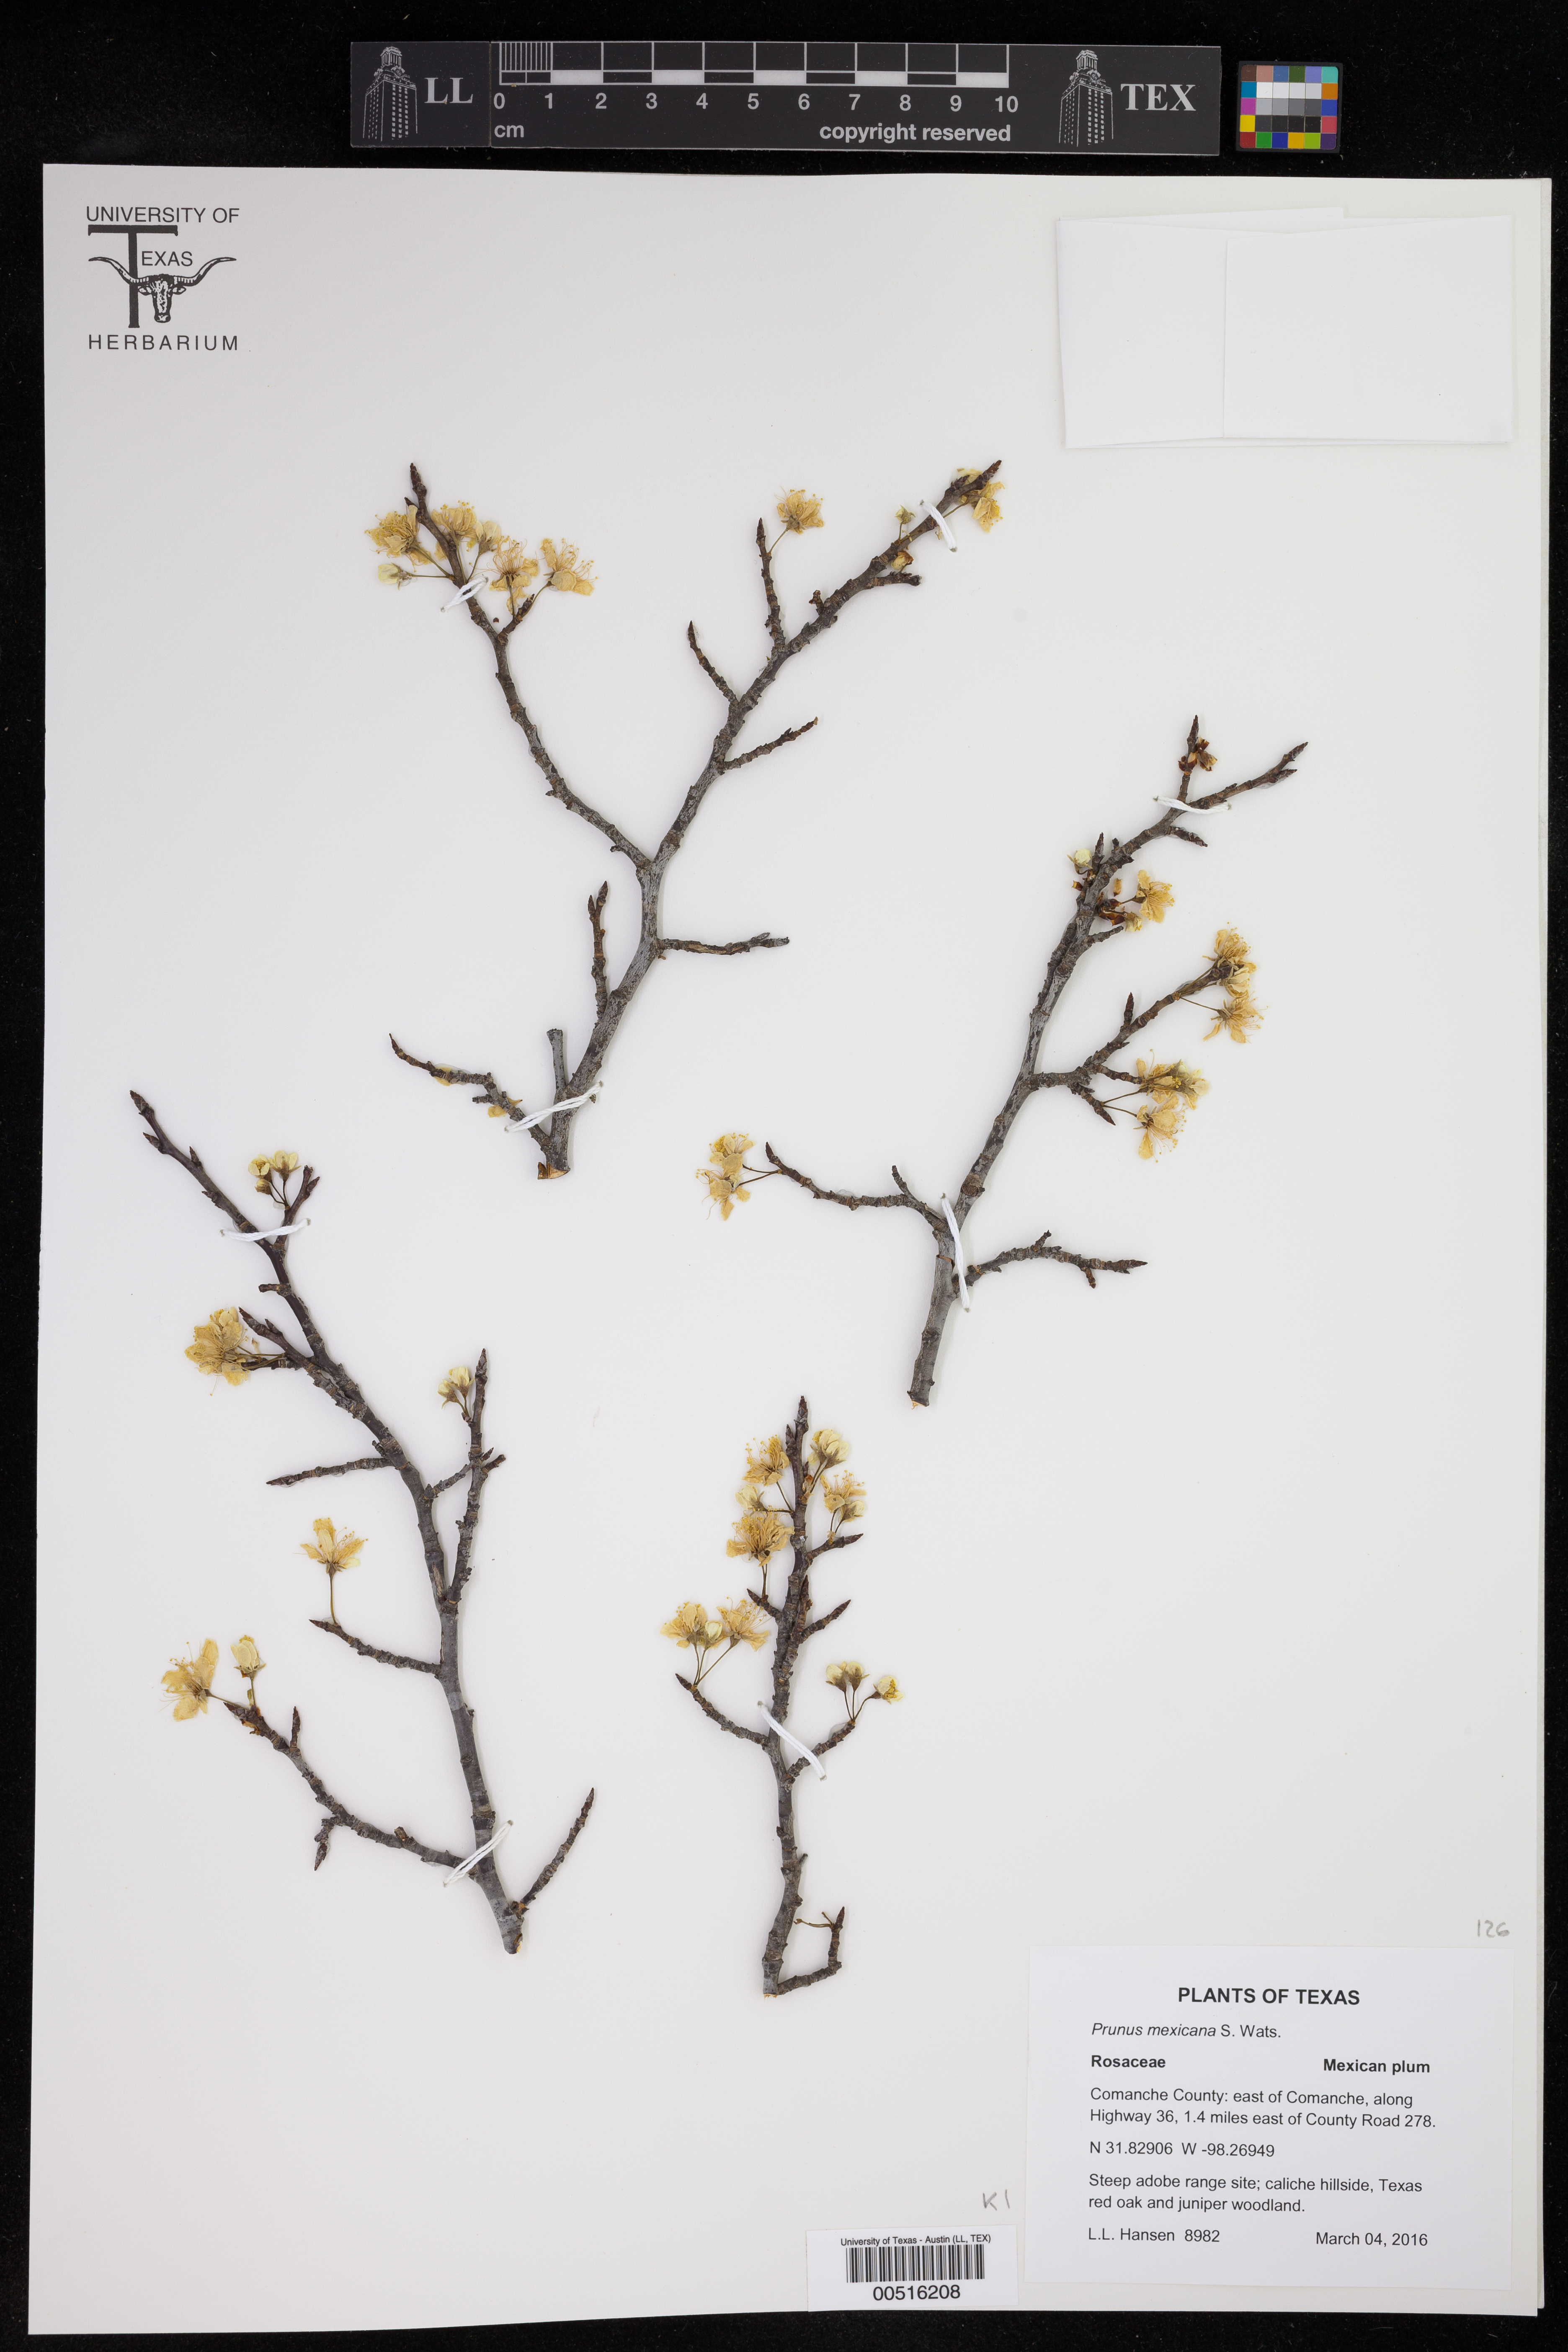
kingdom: Plantae
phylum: Tracheophyta
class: Magnoliopsida
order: Rosales
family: Rosaceae
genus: Prunus
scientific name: Prunus mexicana
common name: Mexican plum
